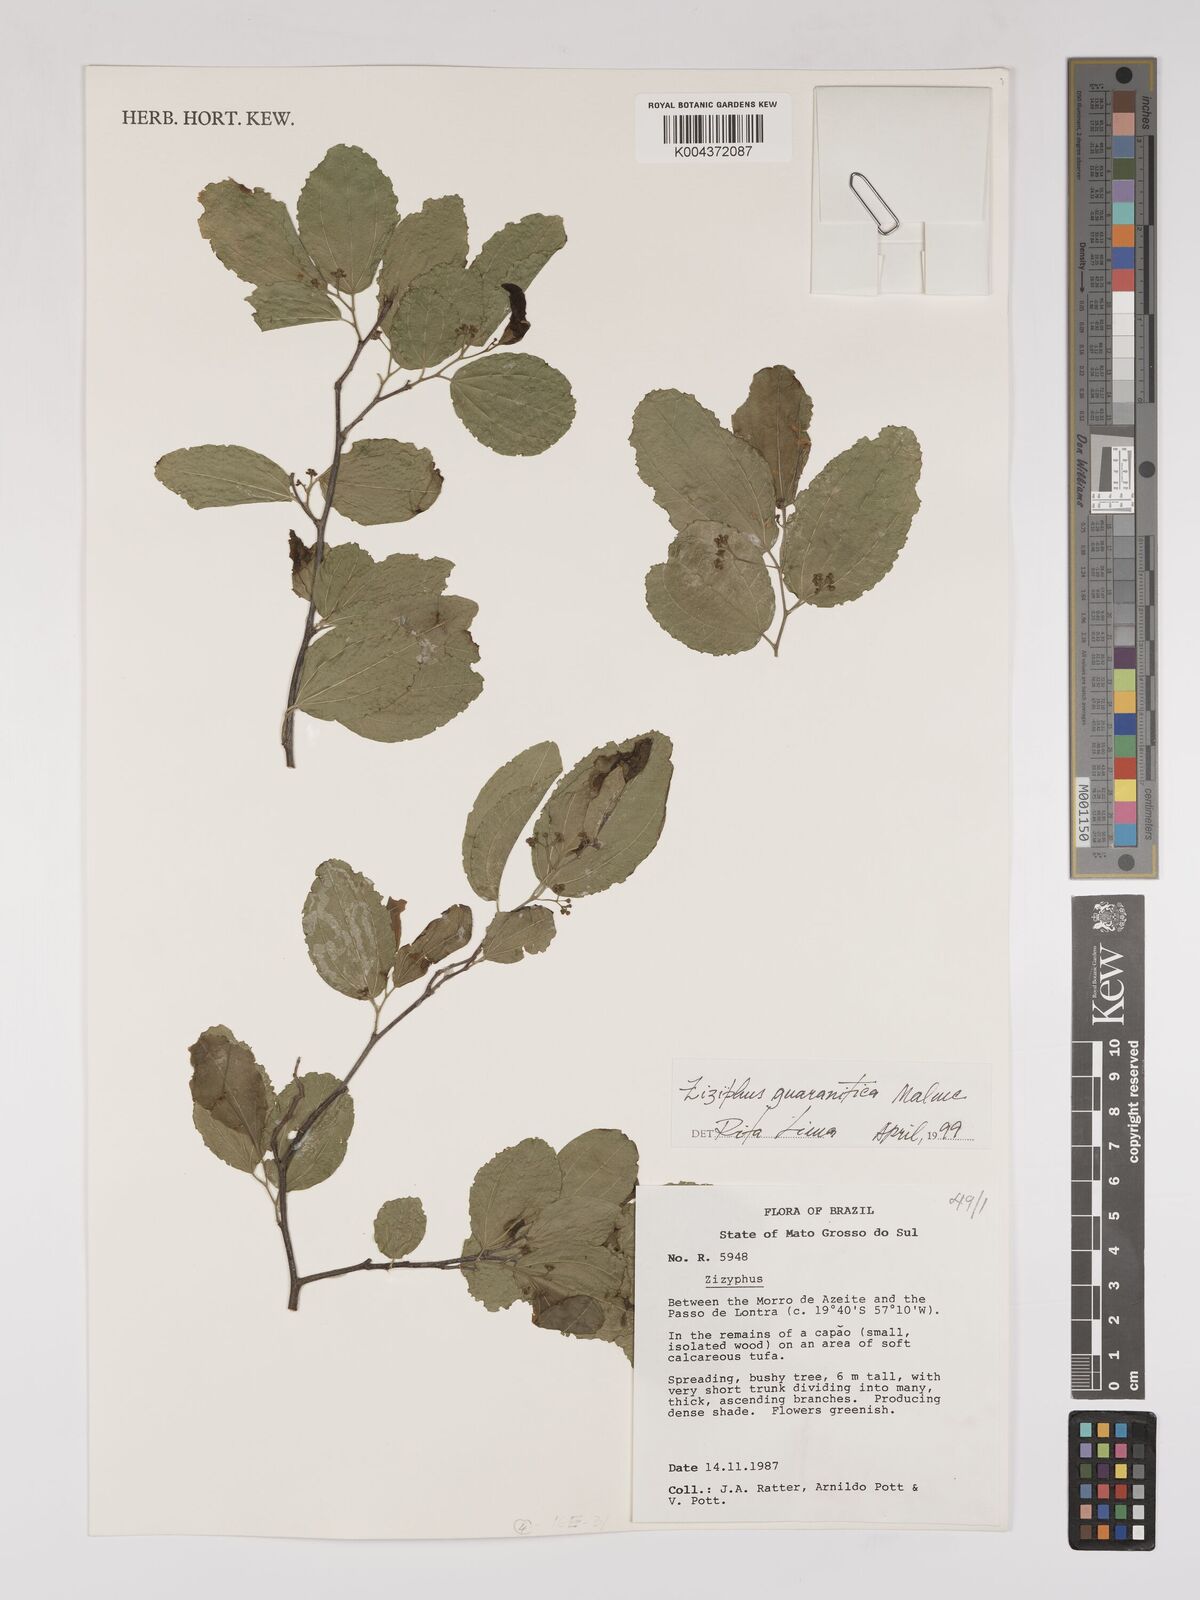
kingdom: Plantae
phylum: Tracheophyta
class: Magnoliopsida
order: Rosales
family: Rhamnaceae
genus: Ziziphus
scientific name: Ziziphus guaranitica
